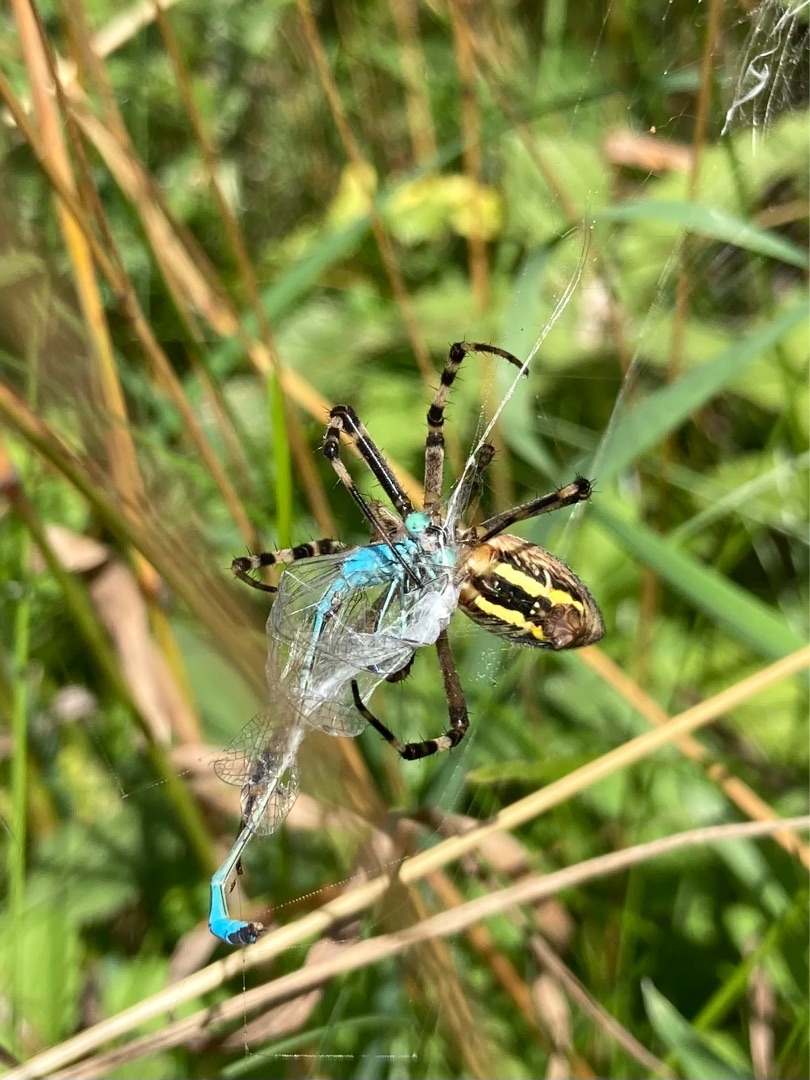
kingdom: Animalia
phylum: Arthropoda
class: Arachnida
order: Araneae
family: Araneidae
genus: Argiope
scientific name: Argiope bruennichi
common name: Hvepseedderkop
